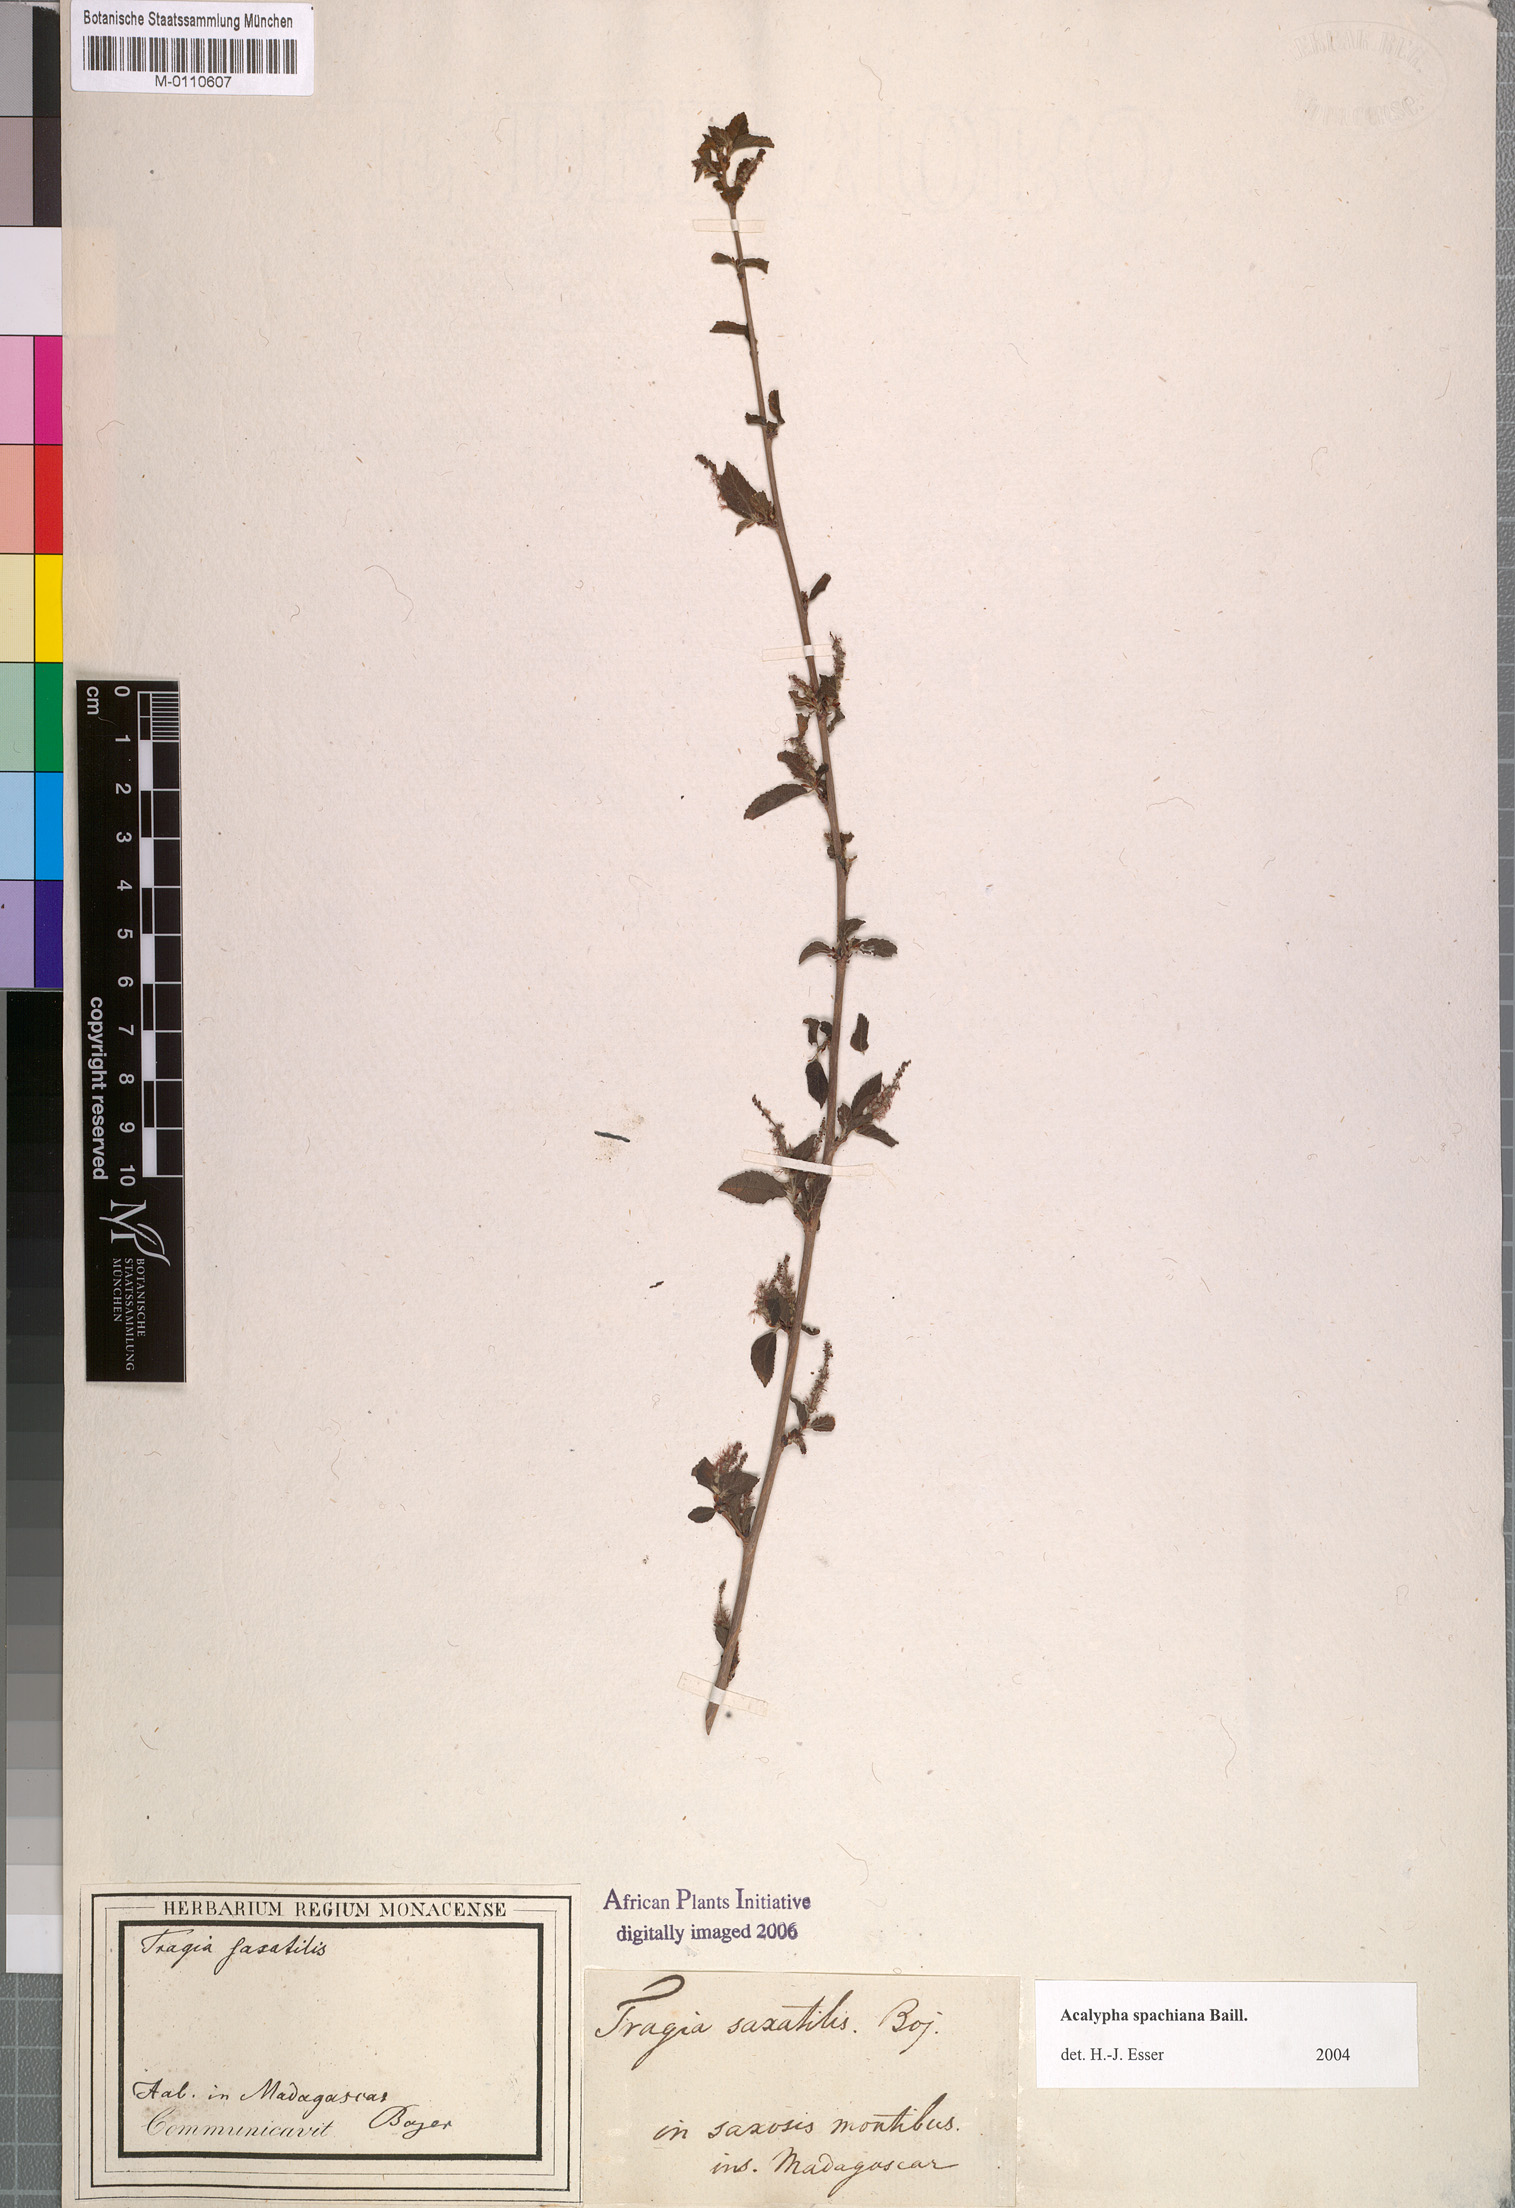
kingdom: Plantae
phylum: Tracheophyta
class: Magnoliopsida
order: Malpighiales
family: Euphorbiaceae
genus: Acalypha
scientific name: Acalypha spachiana
